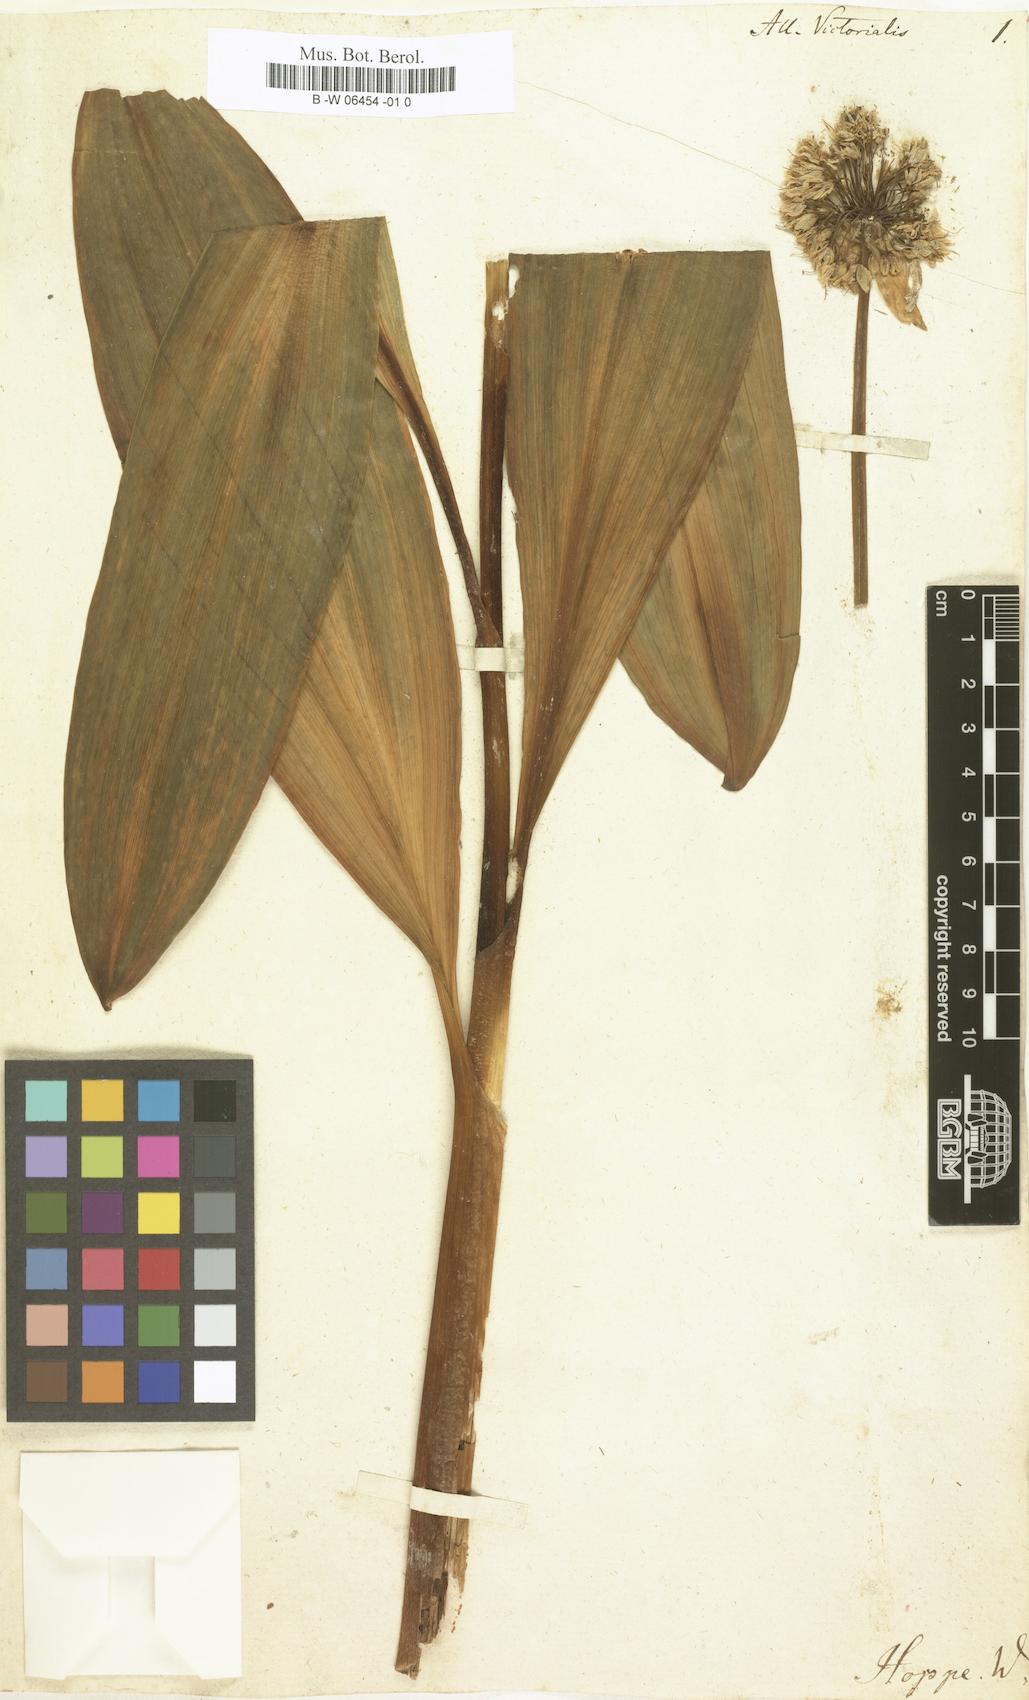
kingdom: Plantae
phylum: Tracheophyta
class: Liliopsida
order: Asparagales
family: Amaryllidaceae
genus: Allium
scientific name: Allium victorialis
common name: Alpine leek
